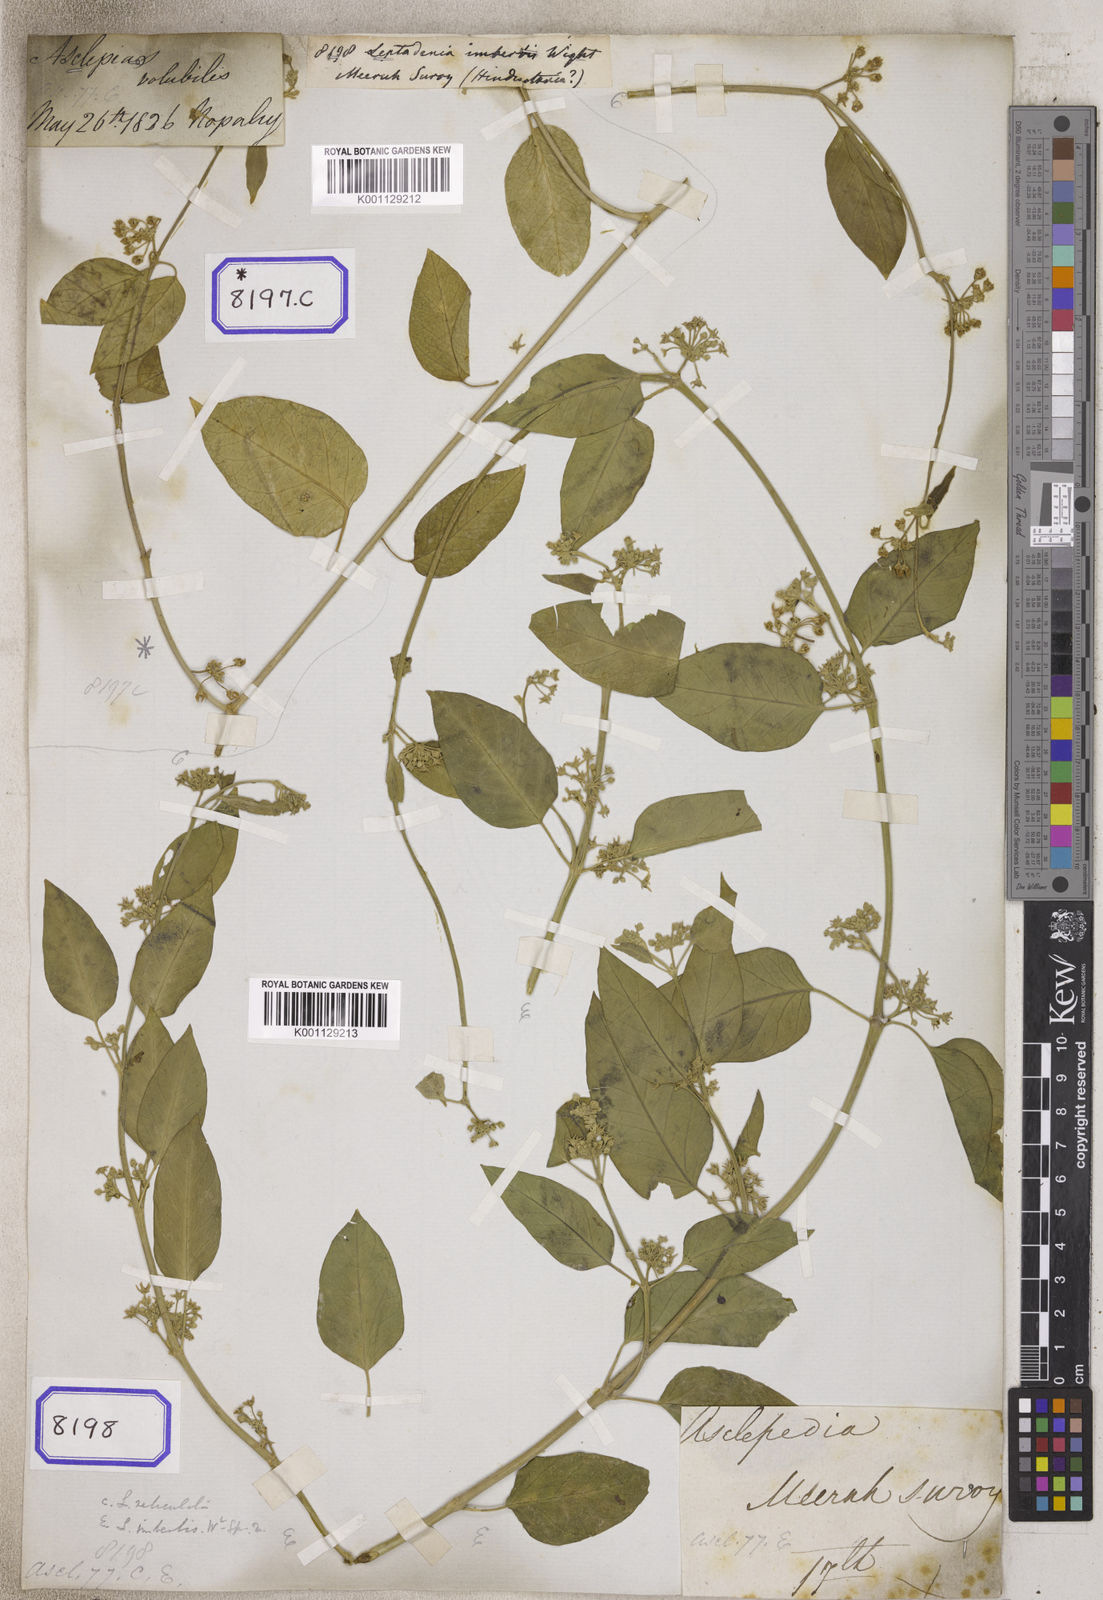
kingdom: Plantae
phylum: Tracheophyta
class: Magnoliopsida
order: Gentianales
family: Apocynaceae
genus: Leptadenia
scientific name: Leptadenia reticulata
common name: Leptadenia
